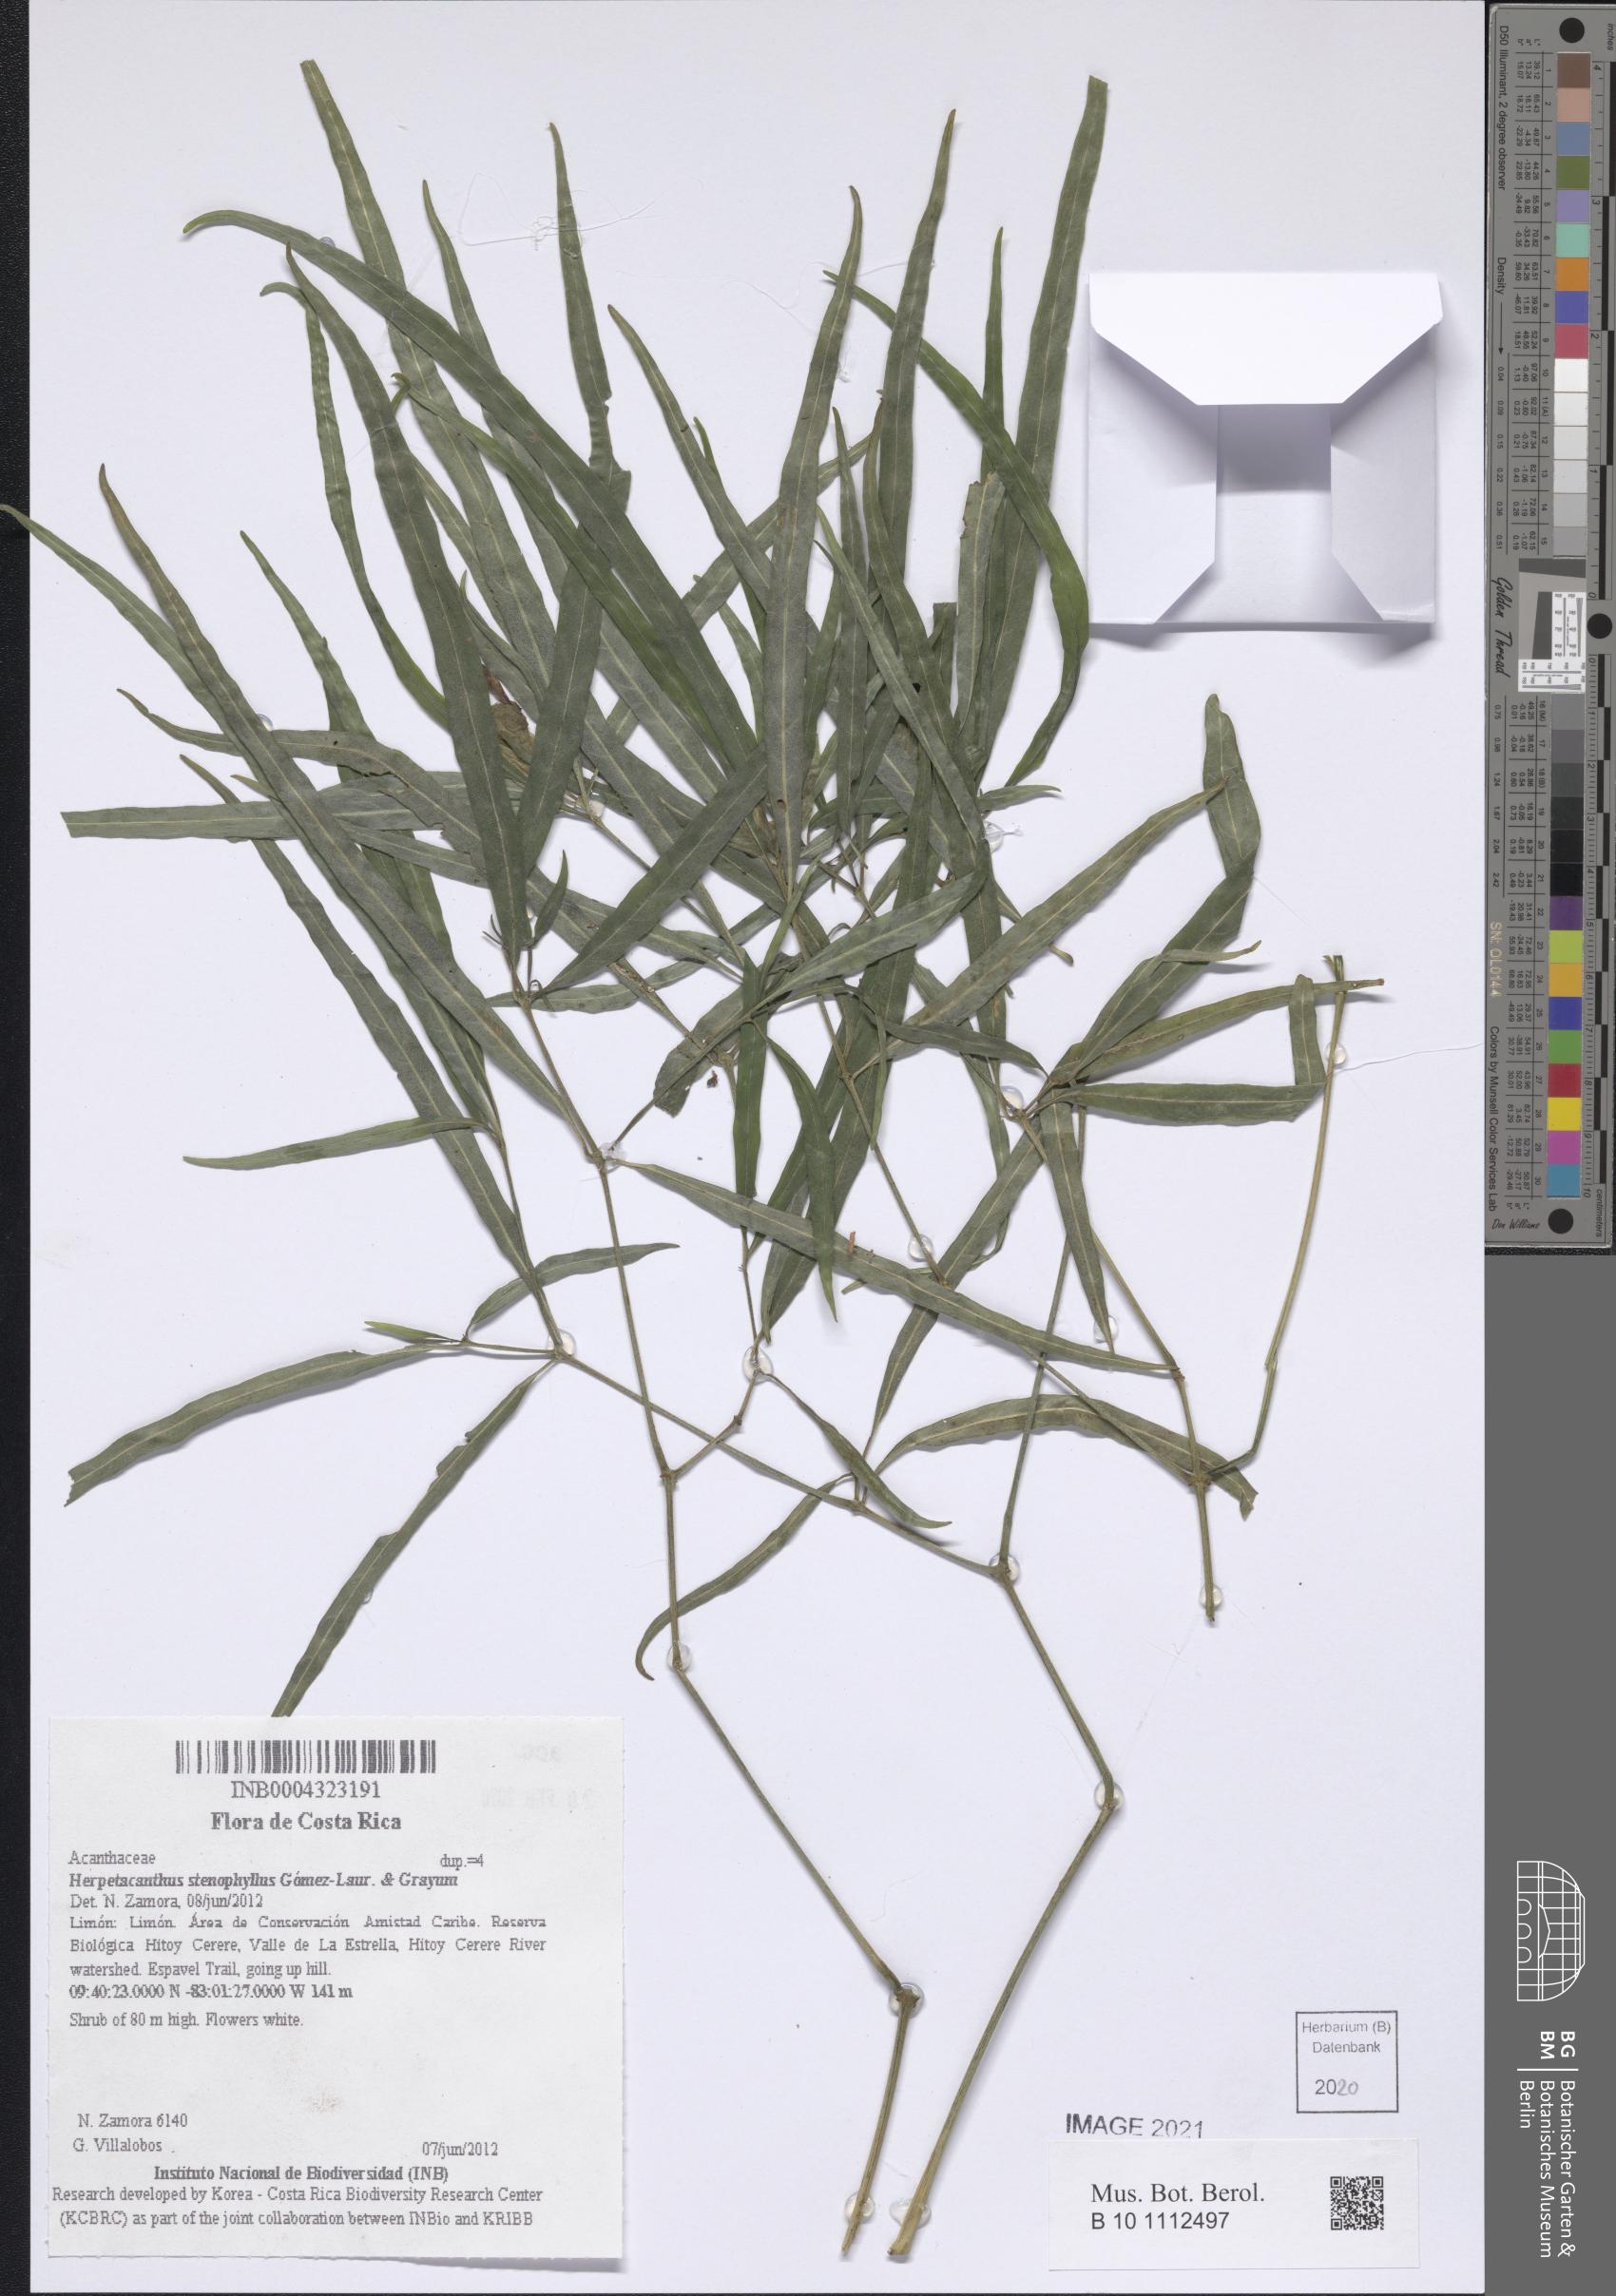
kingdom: Plantae
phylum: Tracheophyta
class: Magnoliopsida
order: Lamiales
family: Acanthaceae
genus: Herpetacanthus
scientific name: Herpetacanthus stenophyllus
